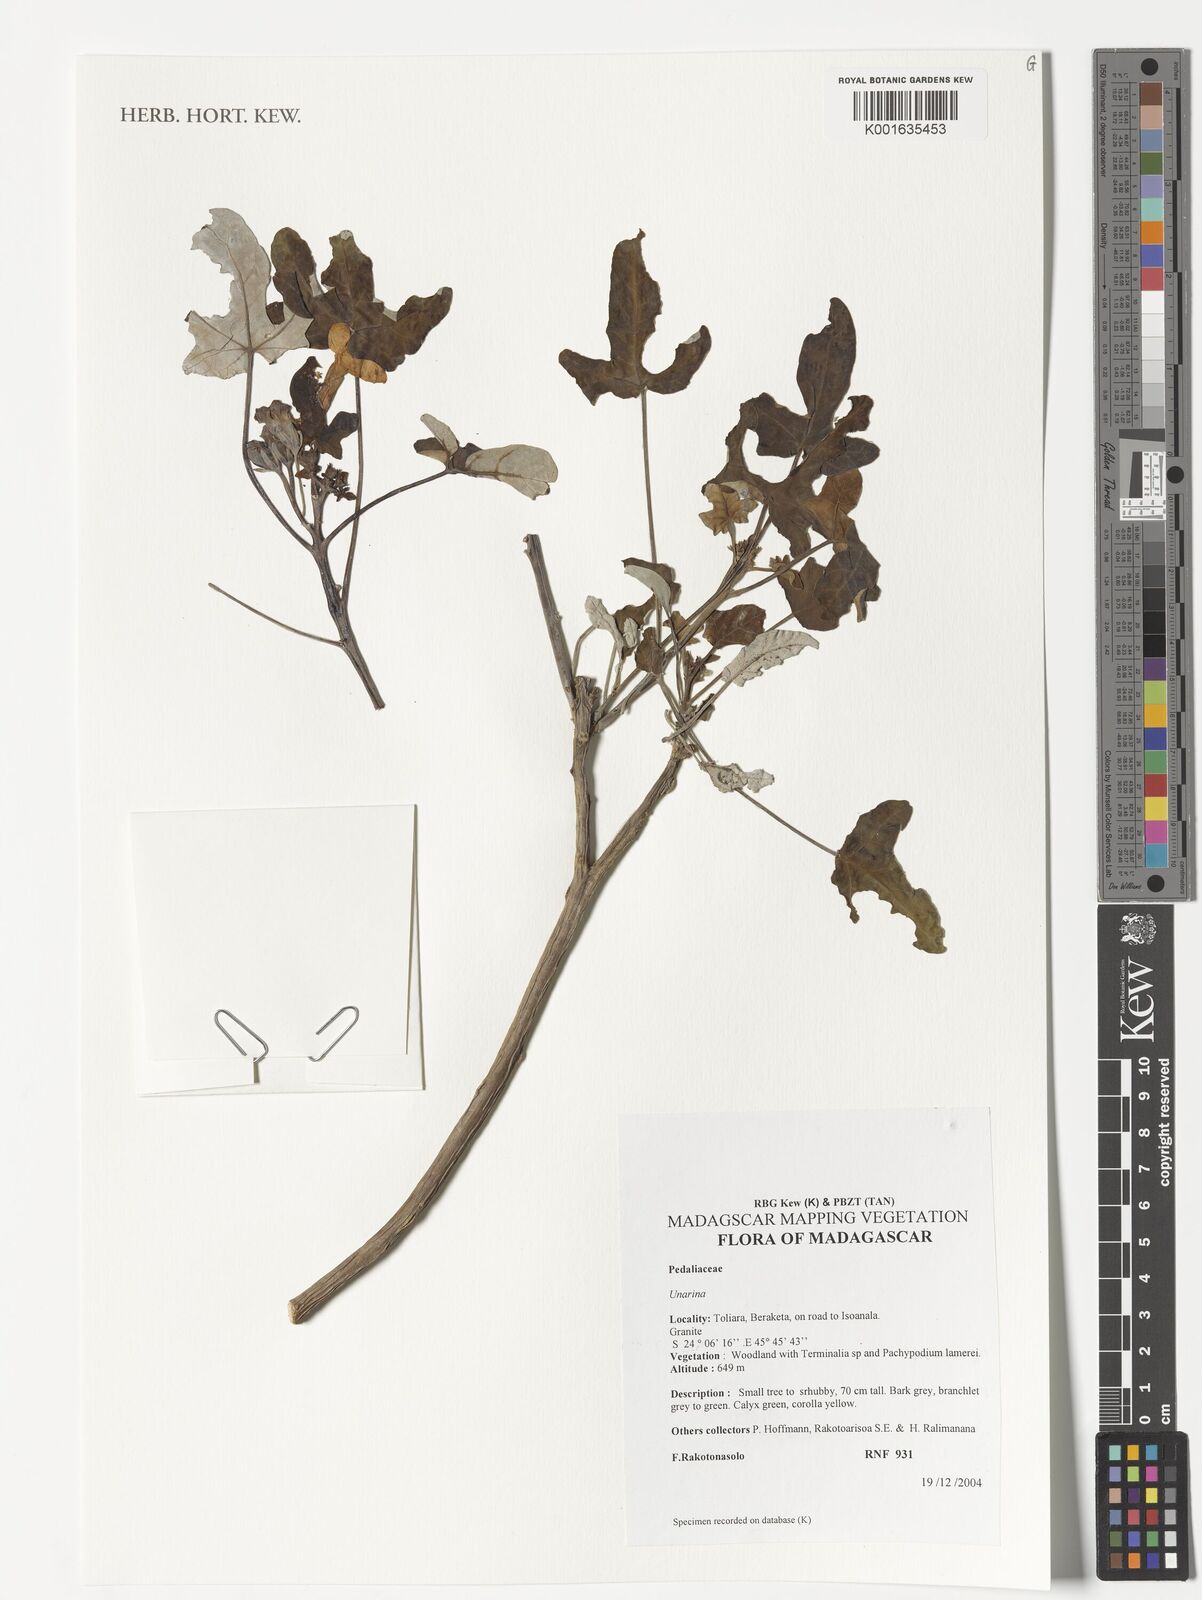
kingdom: Plantae
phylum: Tracheophyta
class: Magnoliopsida
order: Lamiales
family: Pedaliaceae
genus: Uncarina
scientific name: Uncarina
